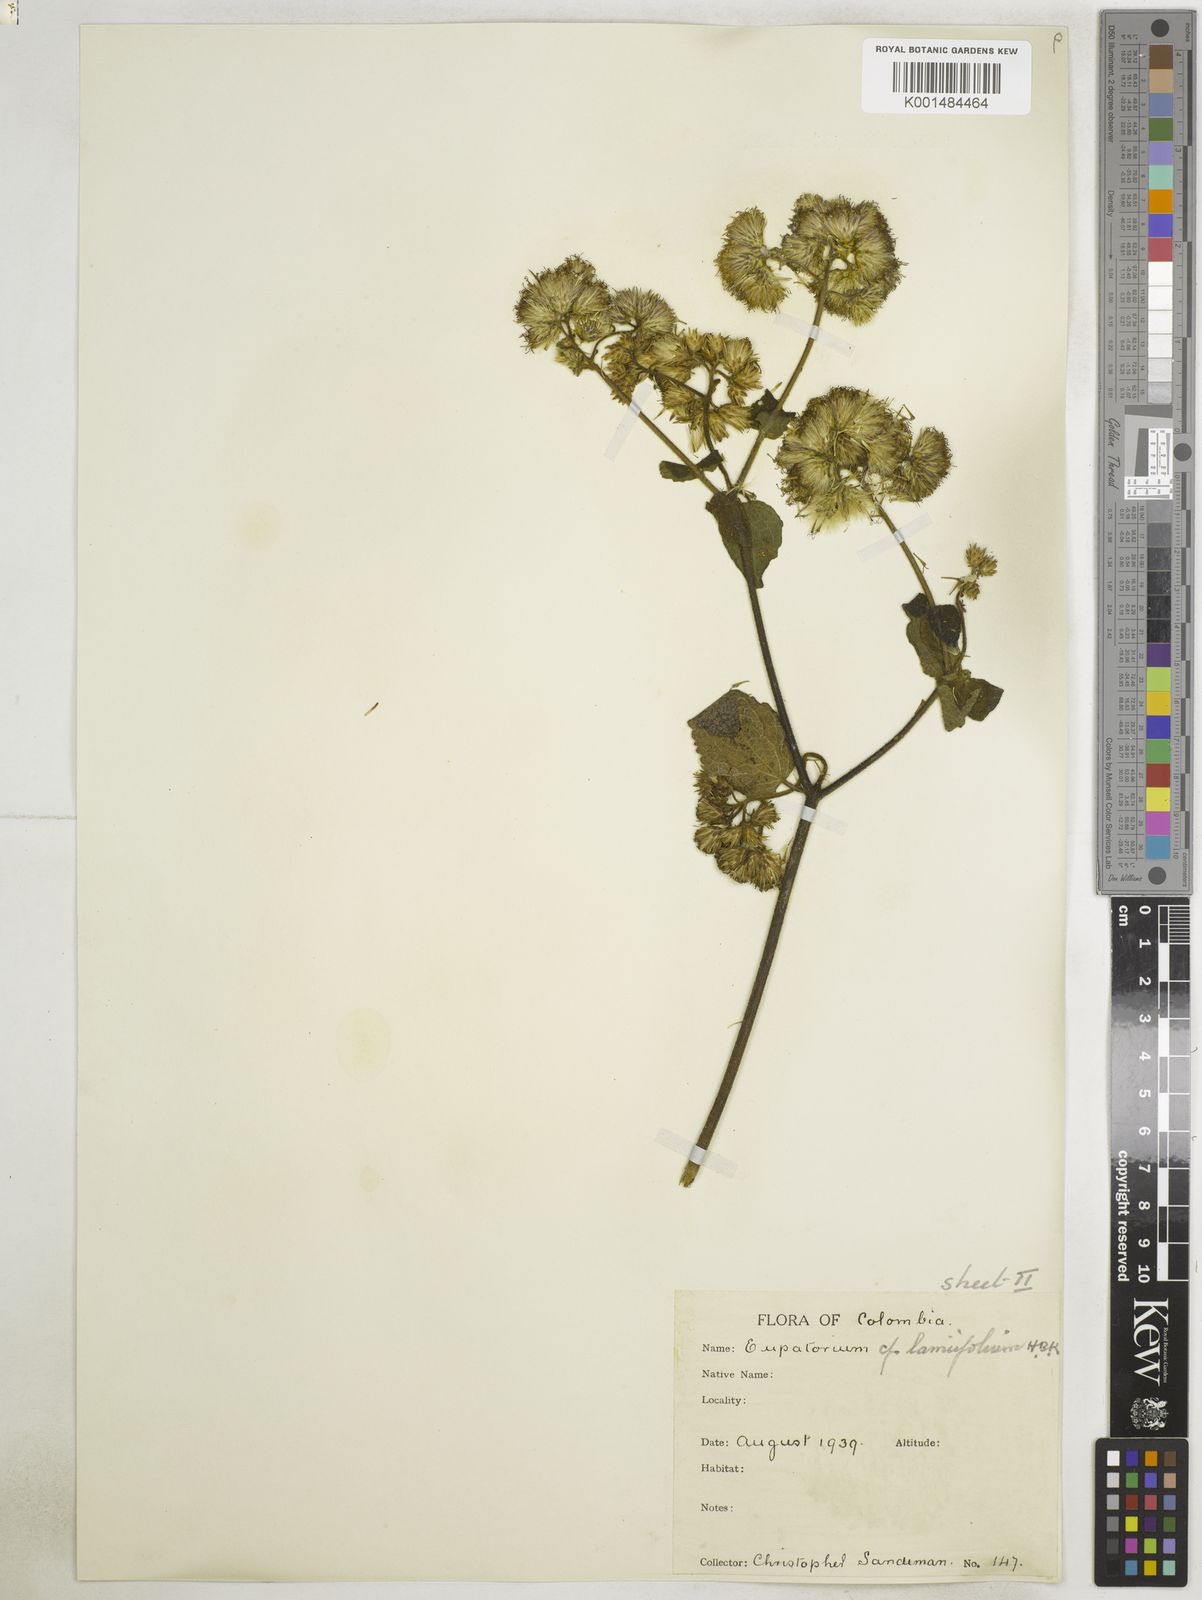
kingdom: Plantae
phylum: Tracheophyta
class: Magnoliopsida
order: Asterales
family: Asteraceae
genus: Aristeguietia
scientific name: Aristeguietia lamiifolia
